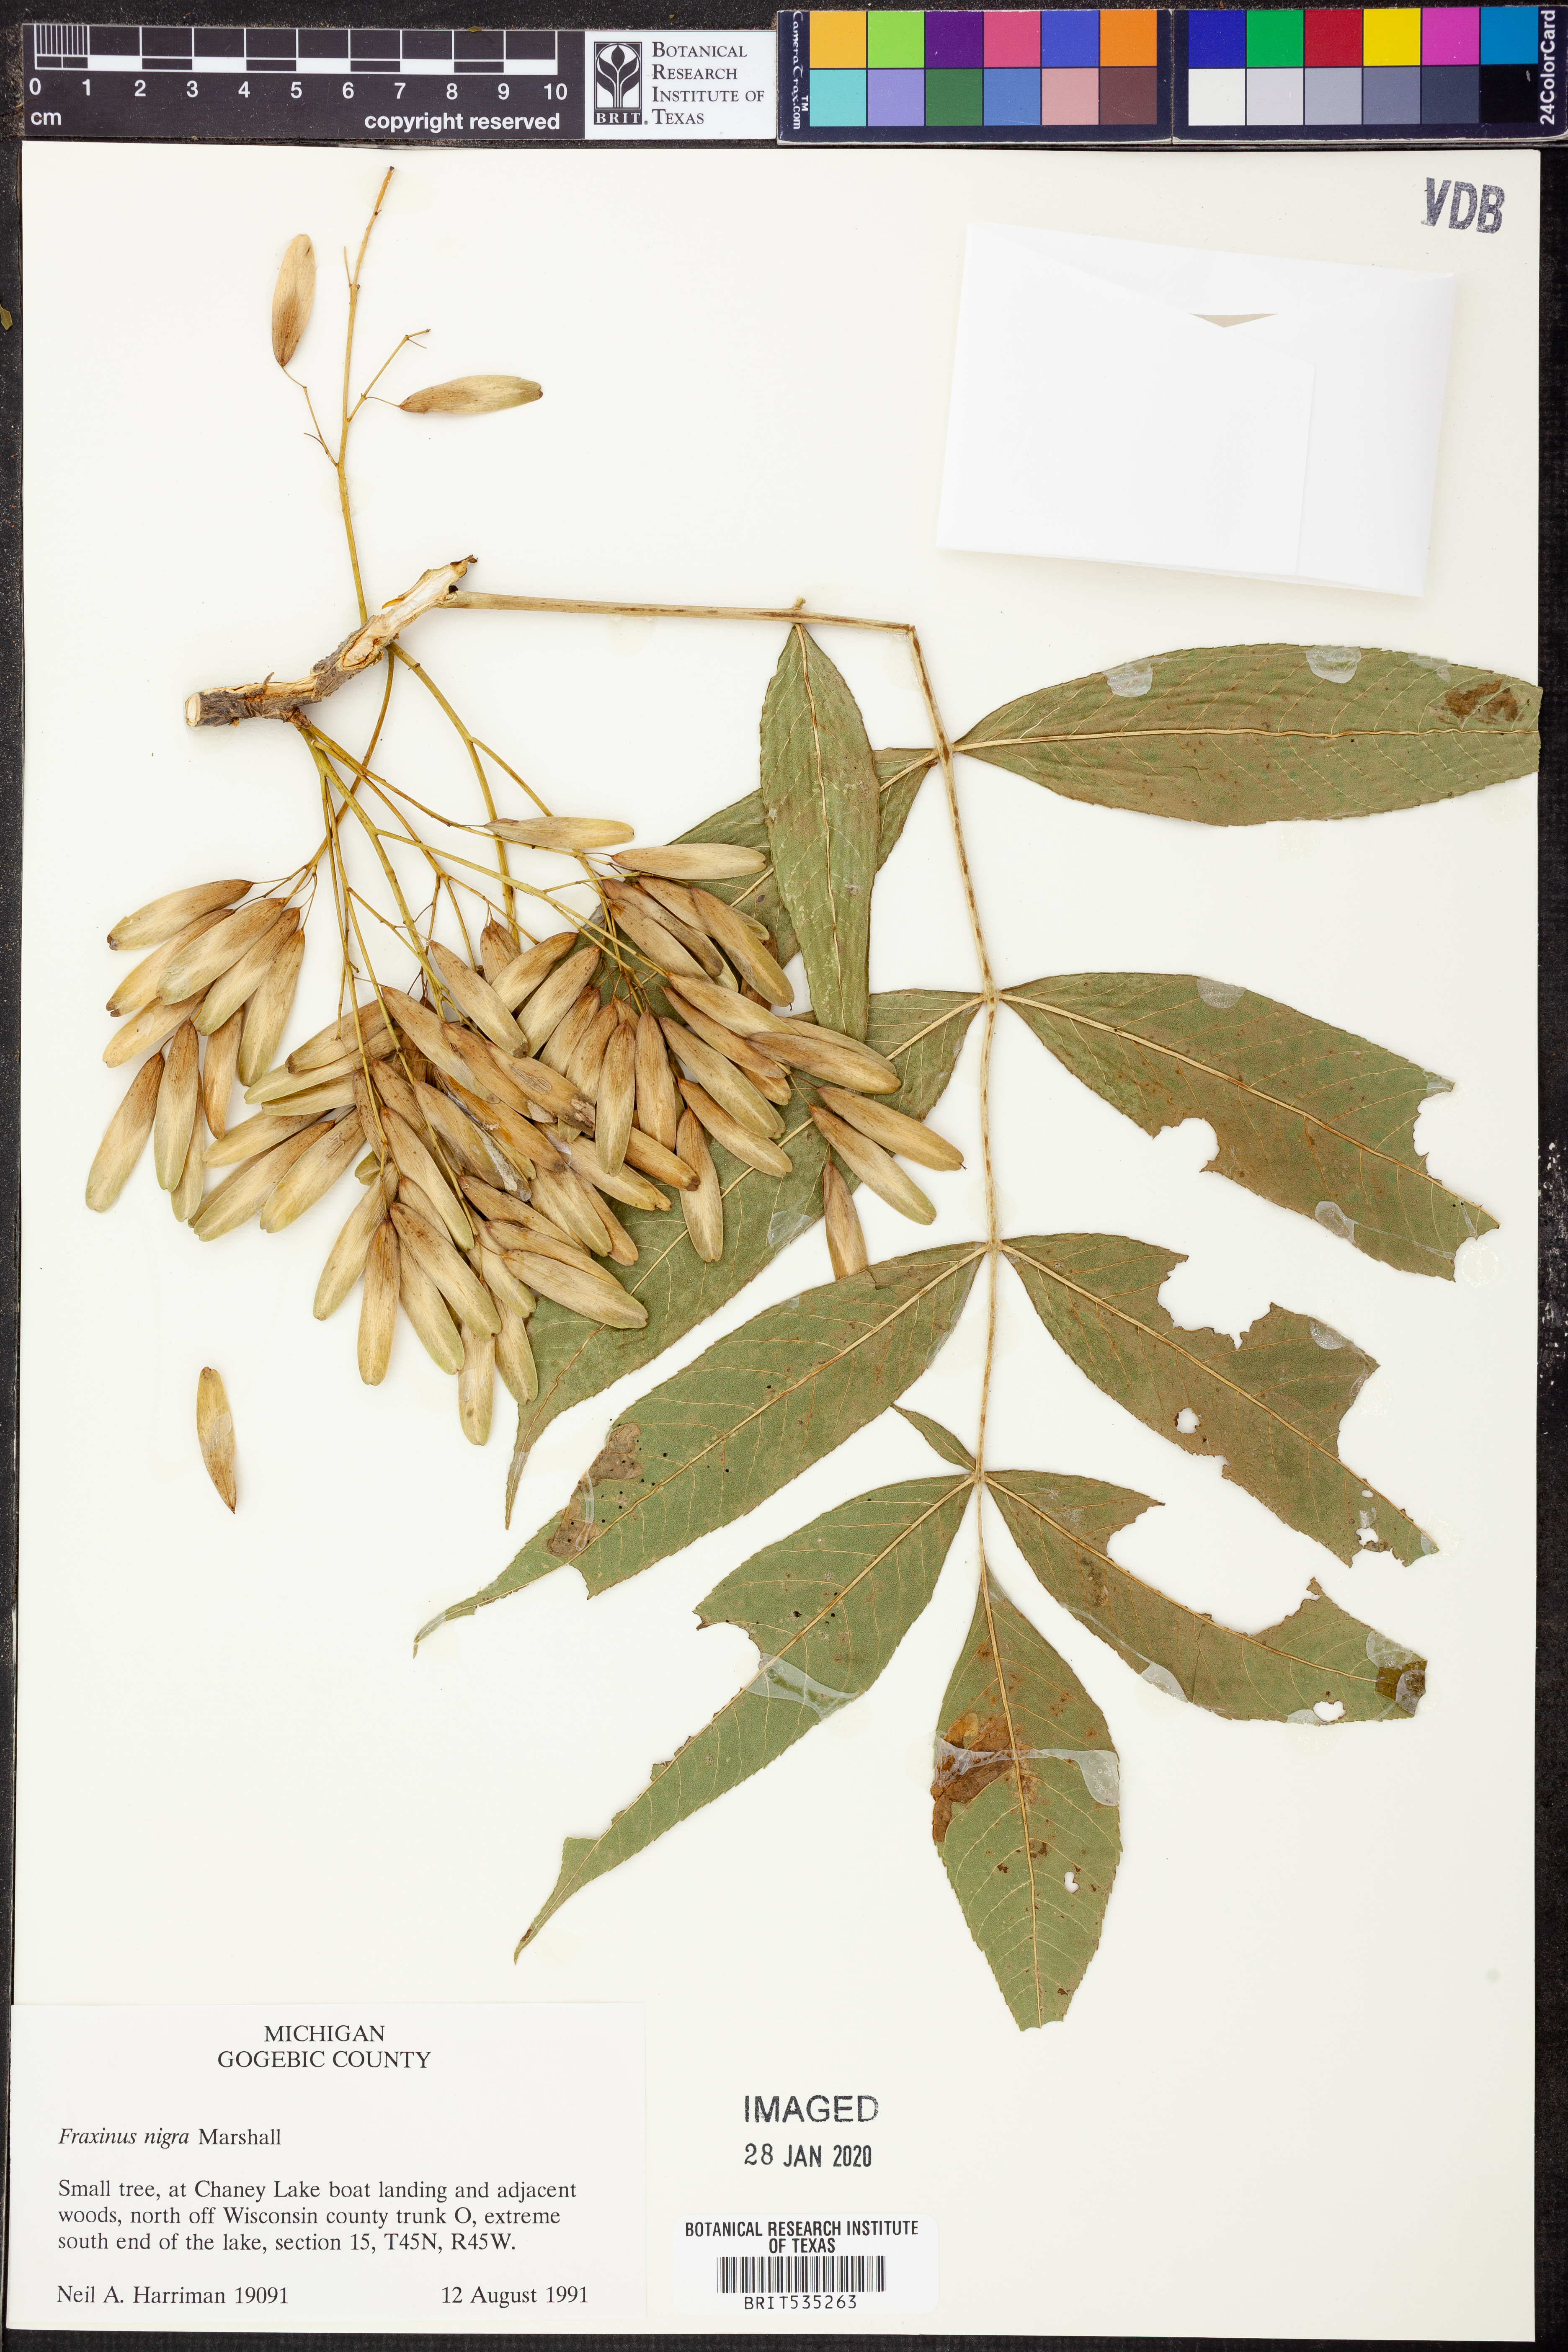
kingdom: Plantae
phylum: Tracheophyta
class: Magnoliopsida
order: Lamiales
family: Oleaceae
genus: Fraxinus
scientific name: Fraxinus nigra
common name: Black ash
